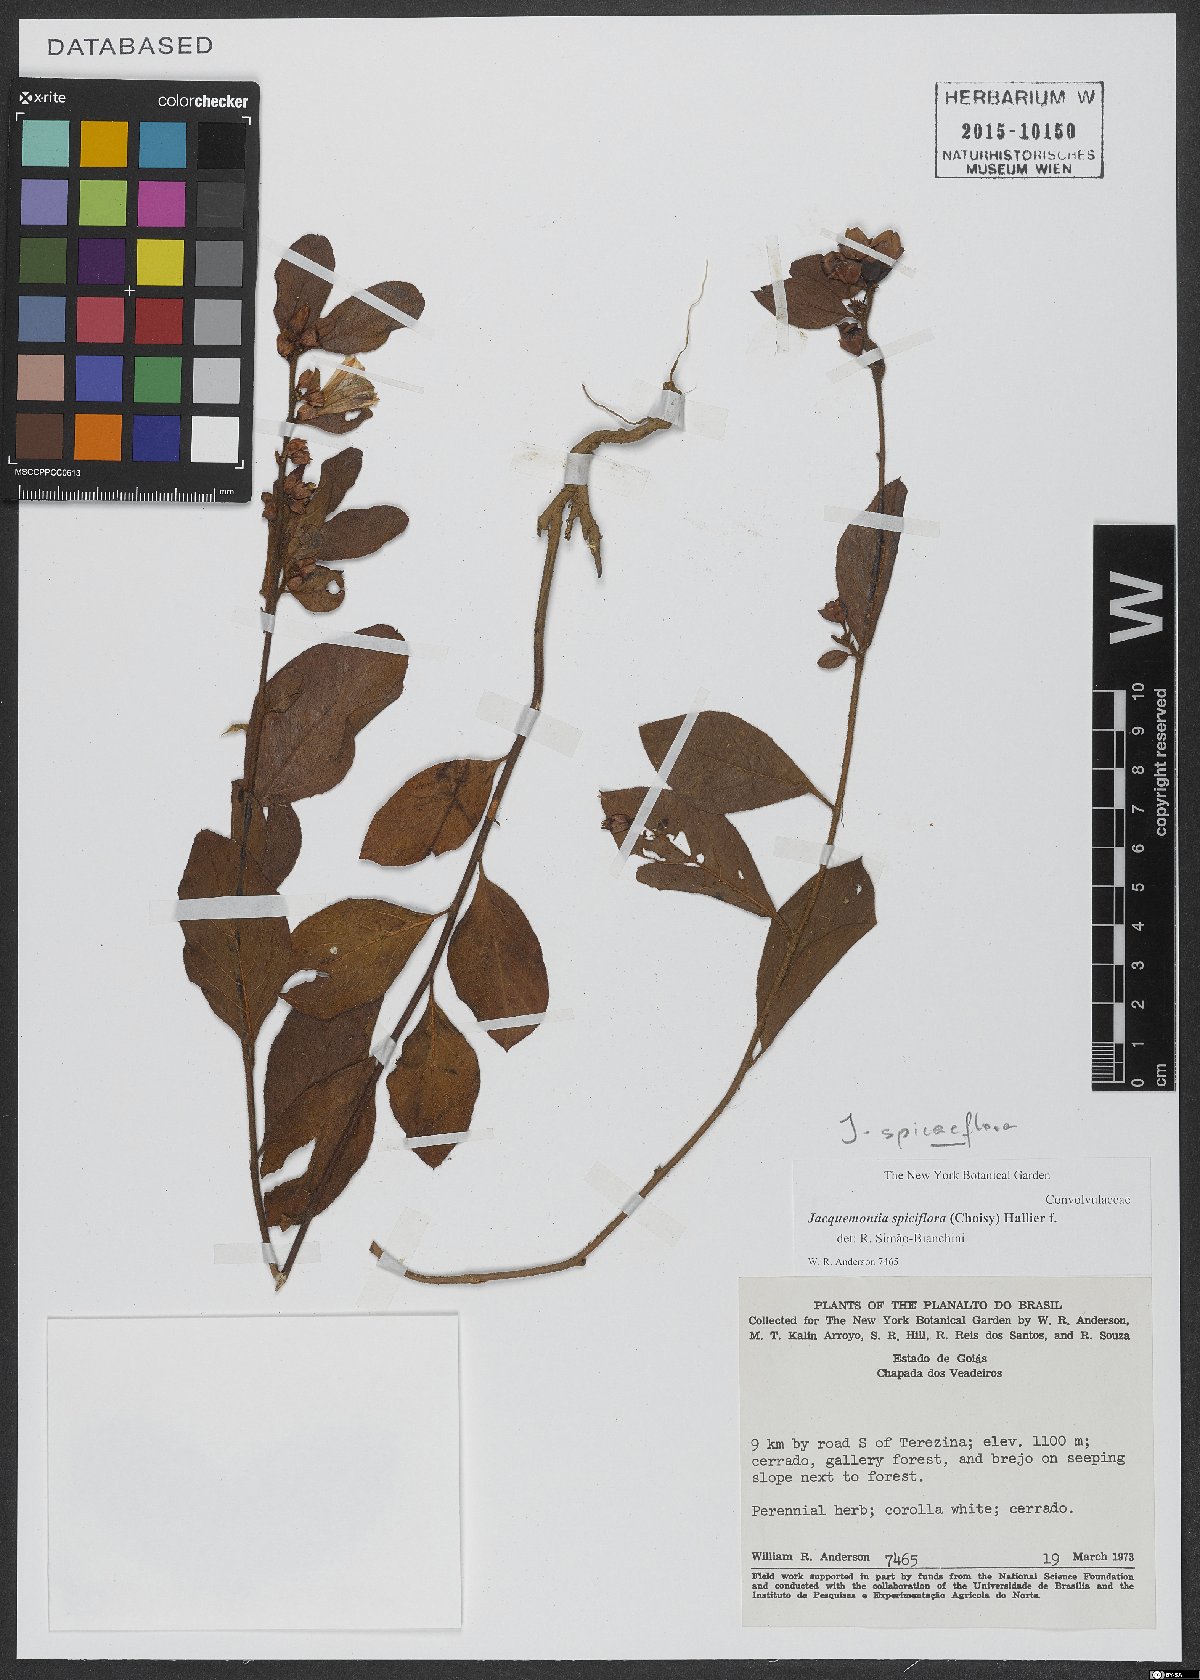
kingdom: Plantae
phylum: Tracheophyta
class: Magnoliopsida
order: Solanales
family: Convolvulaceae
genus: Jacquemontia
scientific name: Jacquemontia spiciflora
